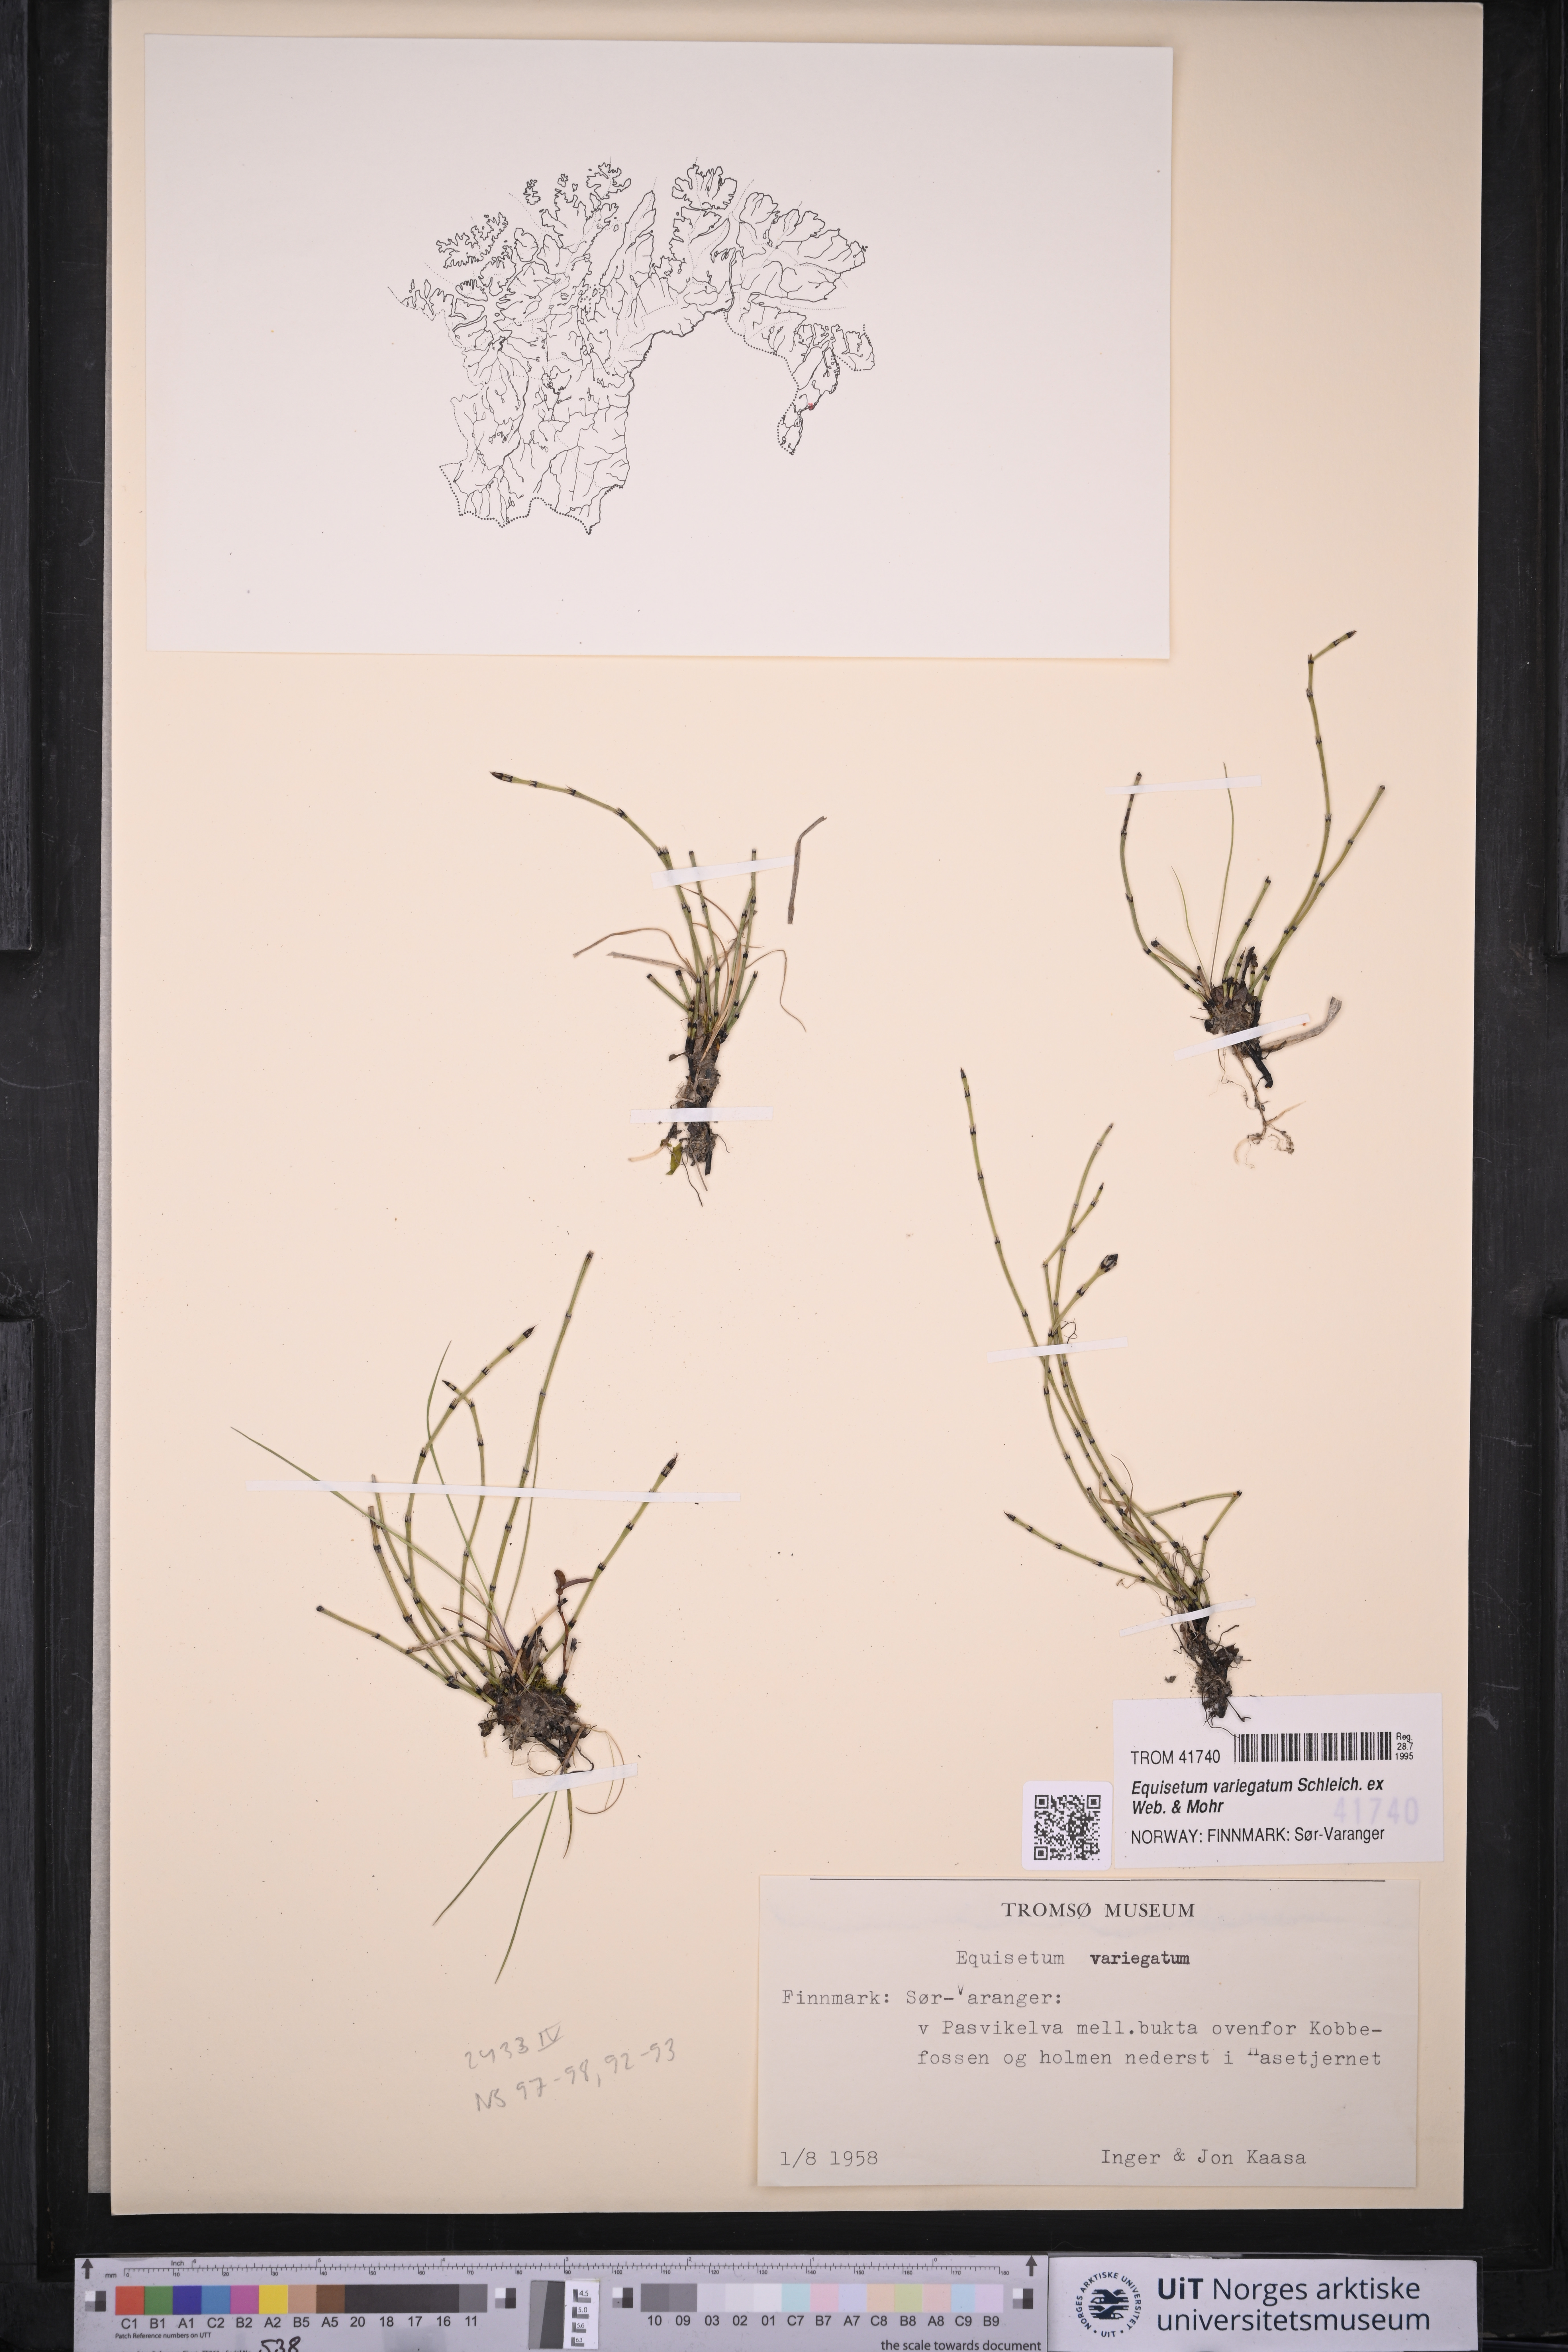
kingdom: Plantae
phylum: Tracheophyta
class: Polypodiopsida
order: Equisetales
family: Equisetaceae
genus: Equisetum
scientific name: Equisetum variegatum
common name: Variegated horsetail
